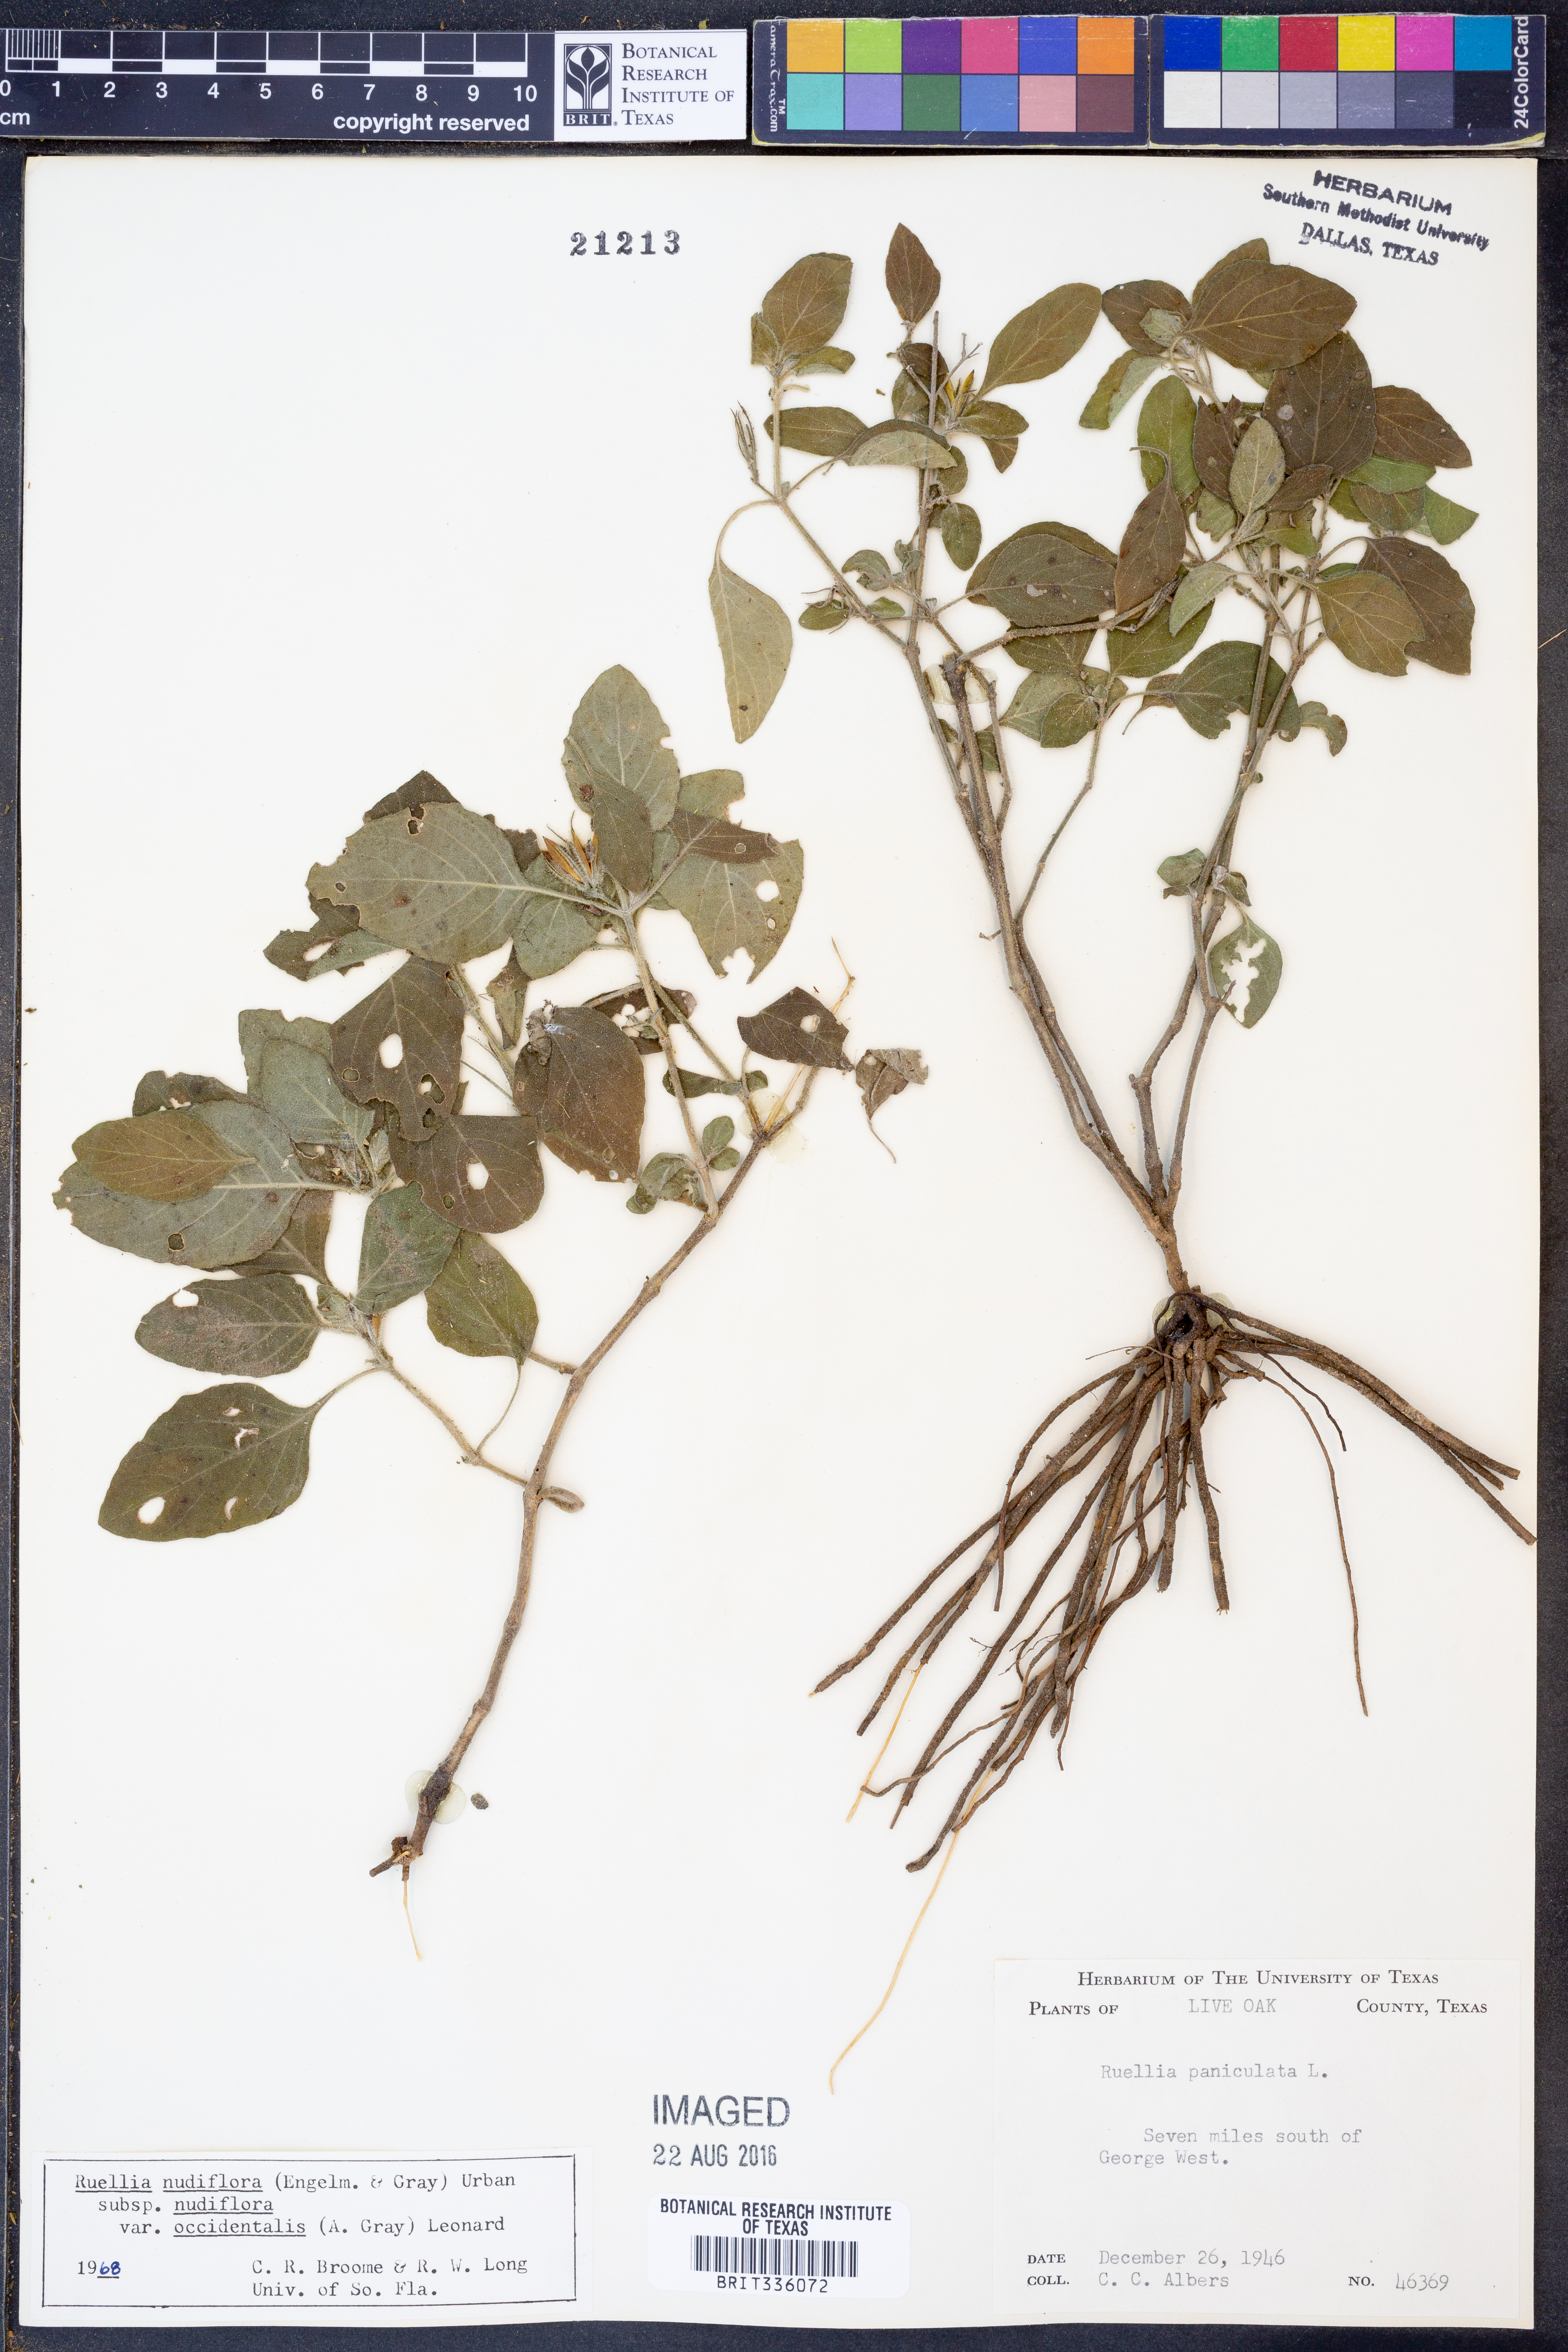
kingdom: Plantae
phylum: Tracheophyta
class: Magnoliopsida
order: Lamiales
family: Acanthaceae
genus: Ruellia
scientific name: Ruellia ciliatiflora
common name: Hairyflower wild petunia
